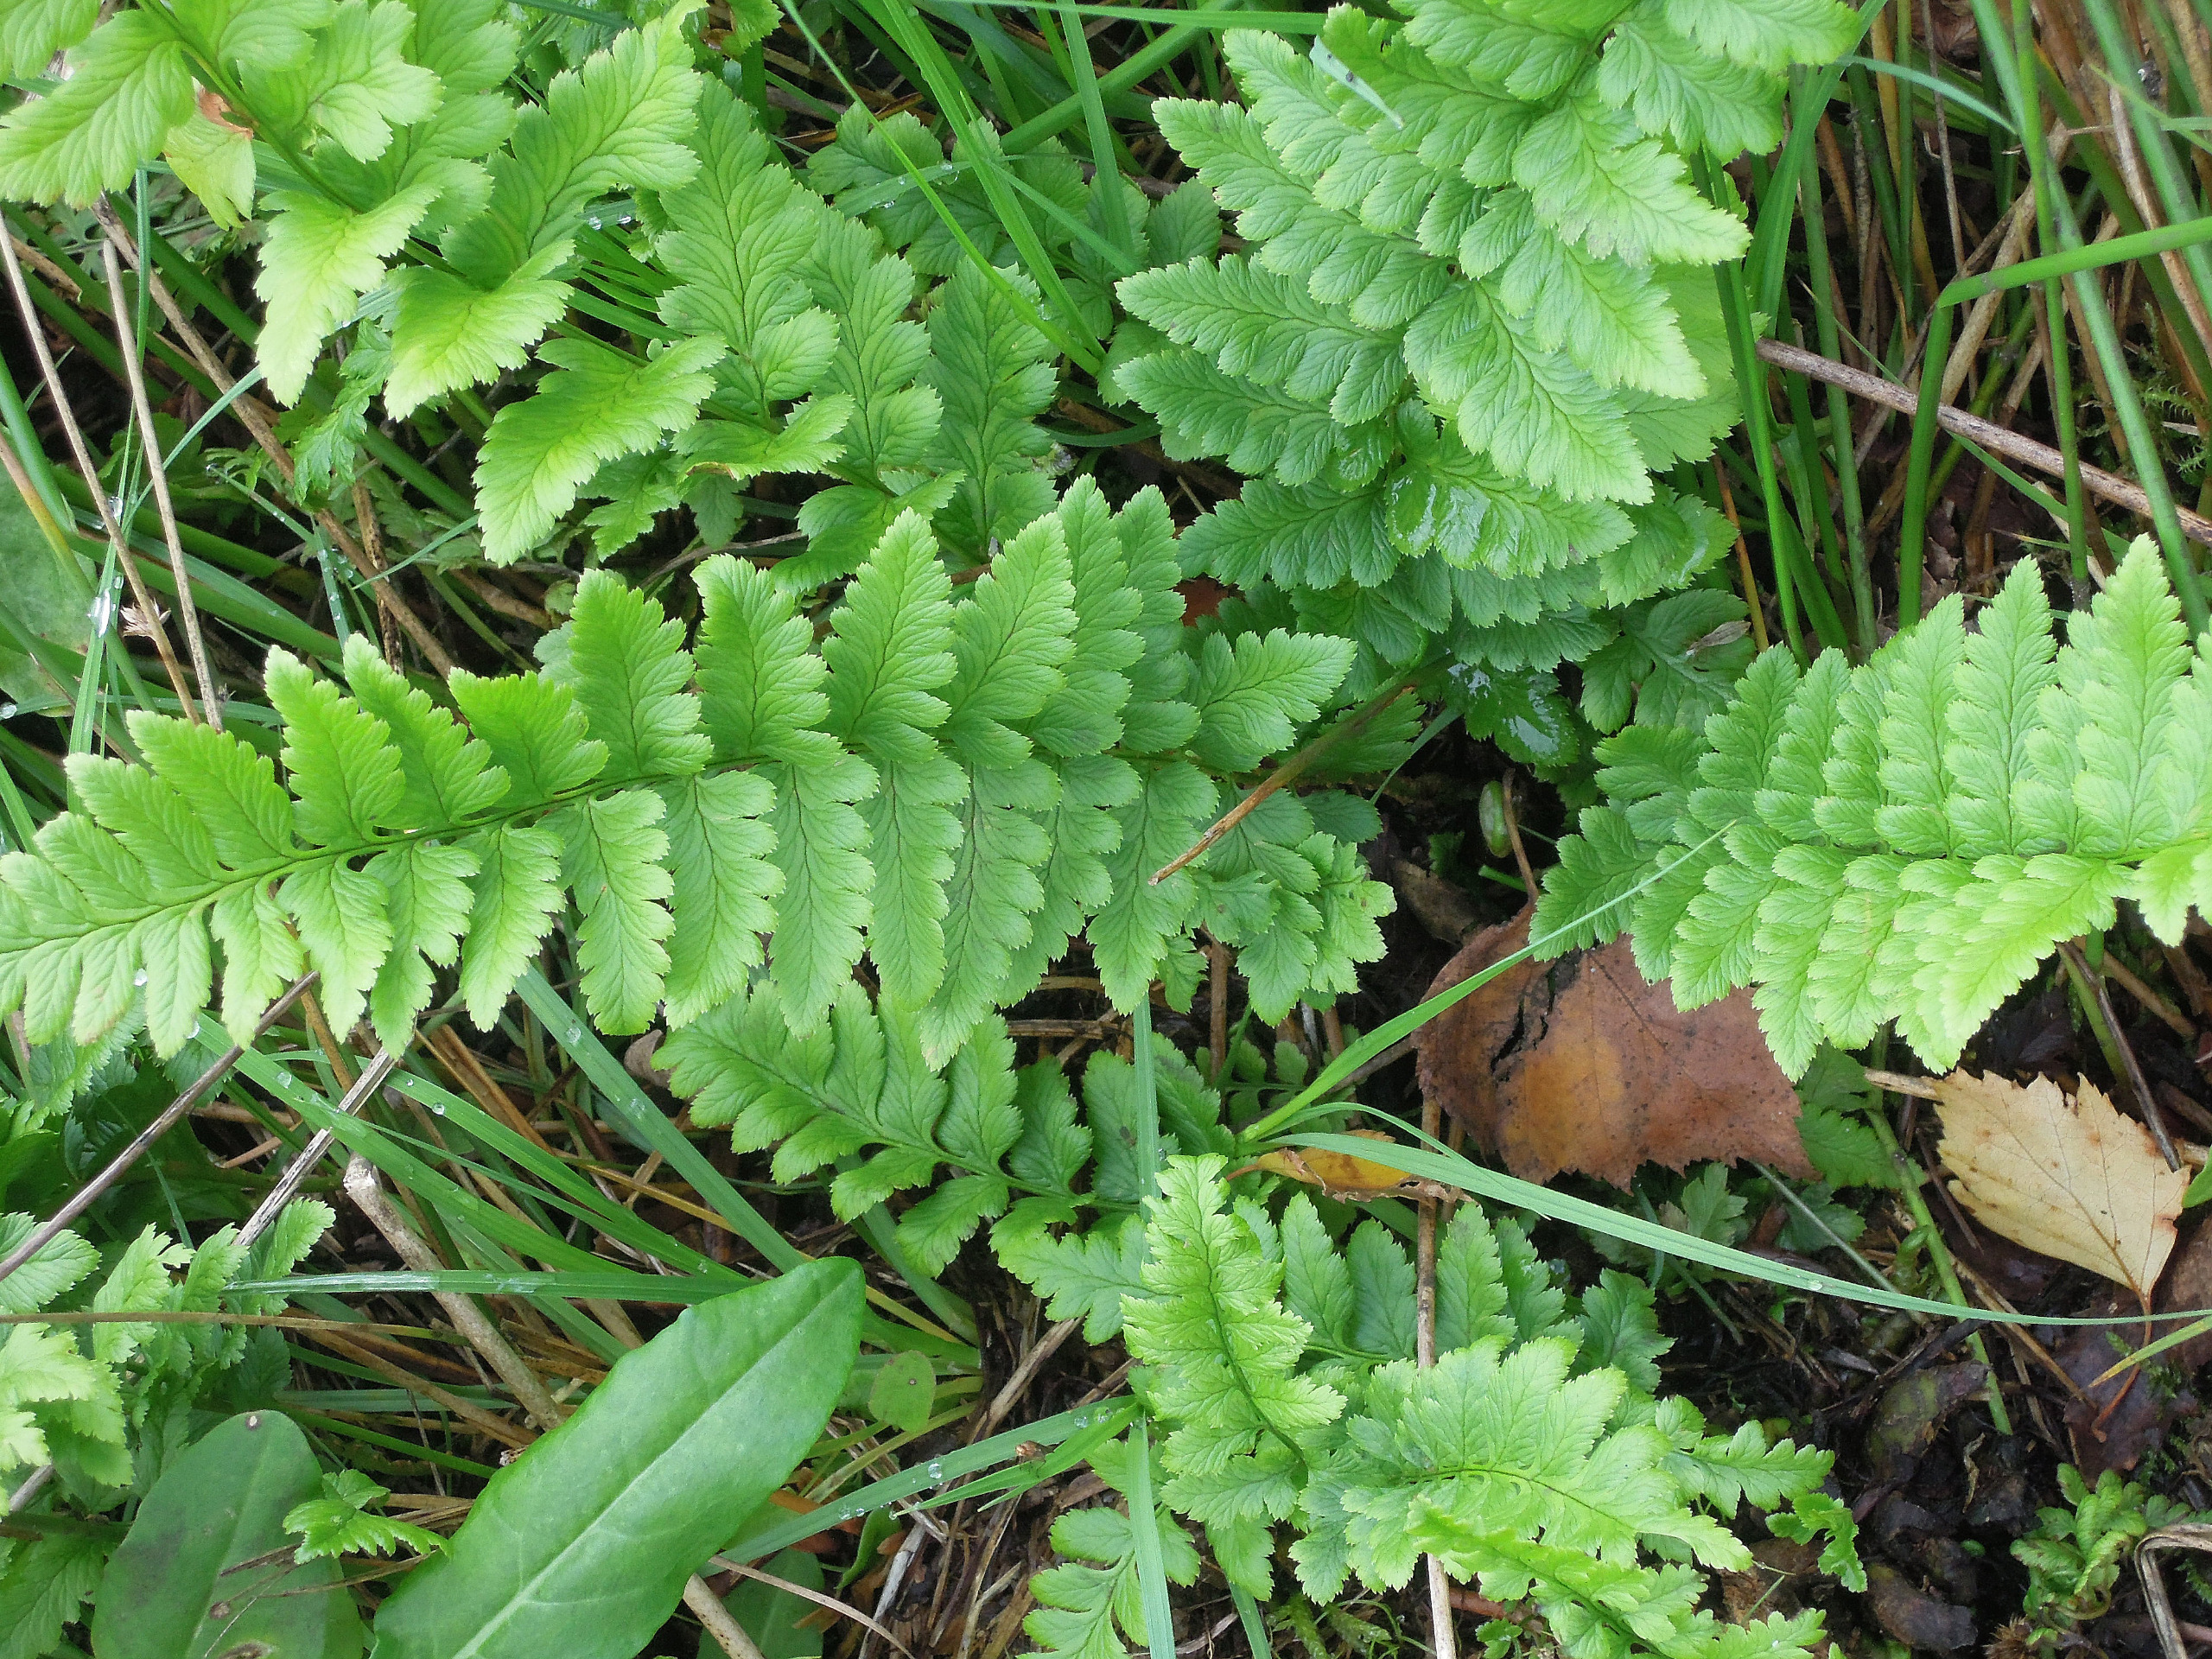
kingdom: Plantae
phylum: Tracheophyta
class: Polypodiopsida
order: Polypodiales
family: Dryopteridaceae
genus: Dryopteris
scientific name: Dryopteris cristata
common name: Butfinnet mangeløv
